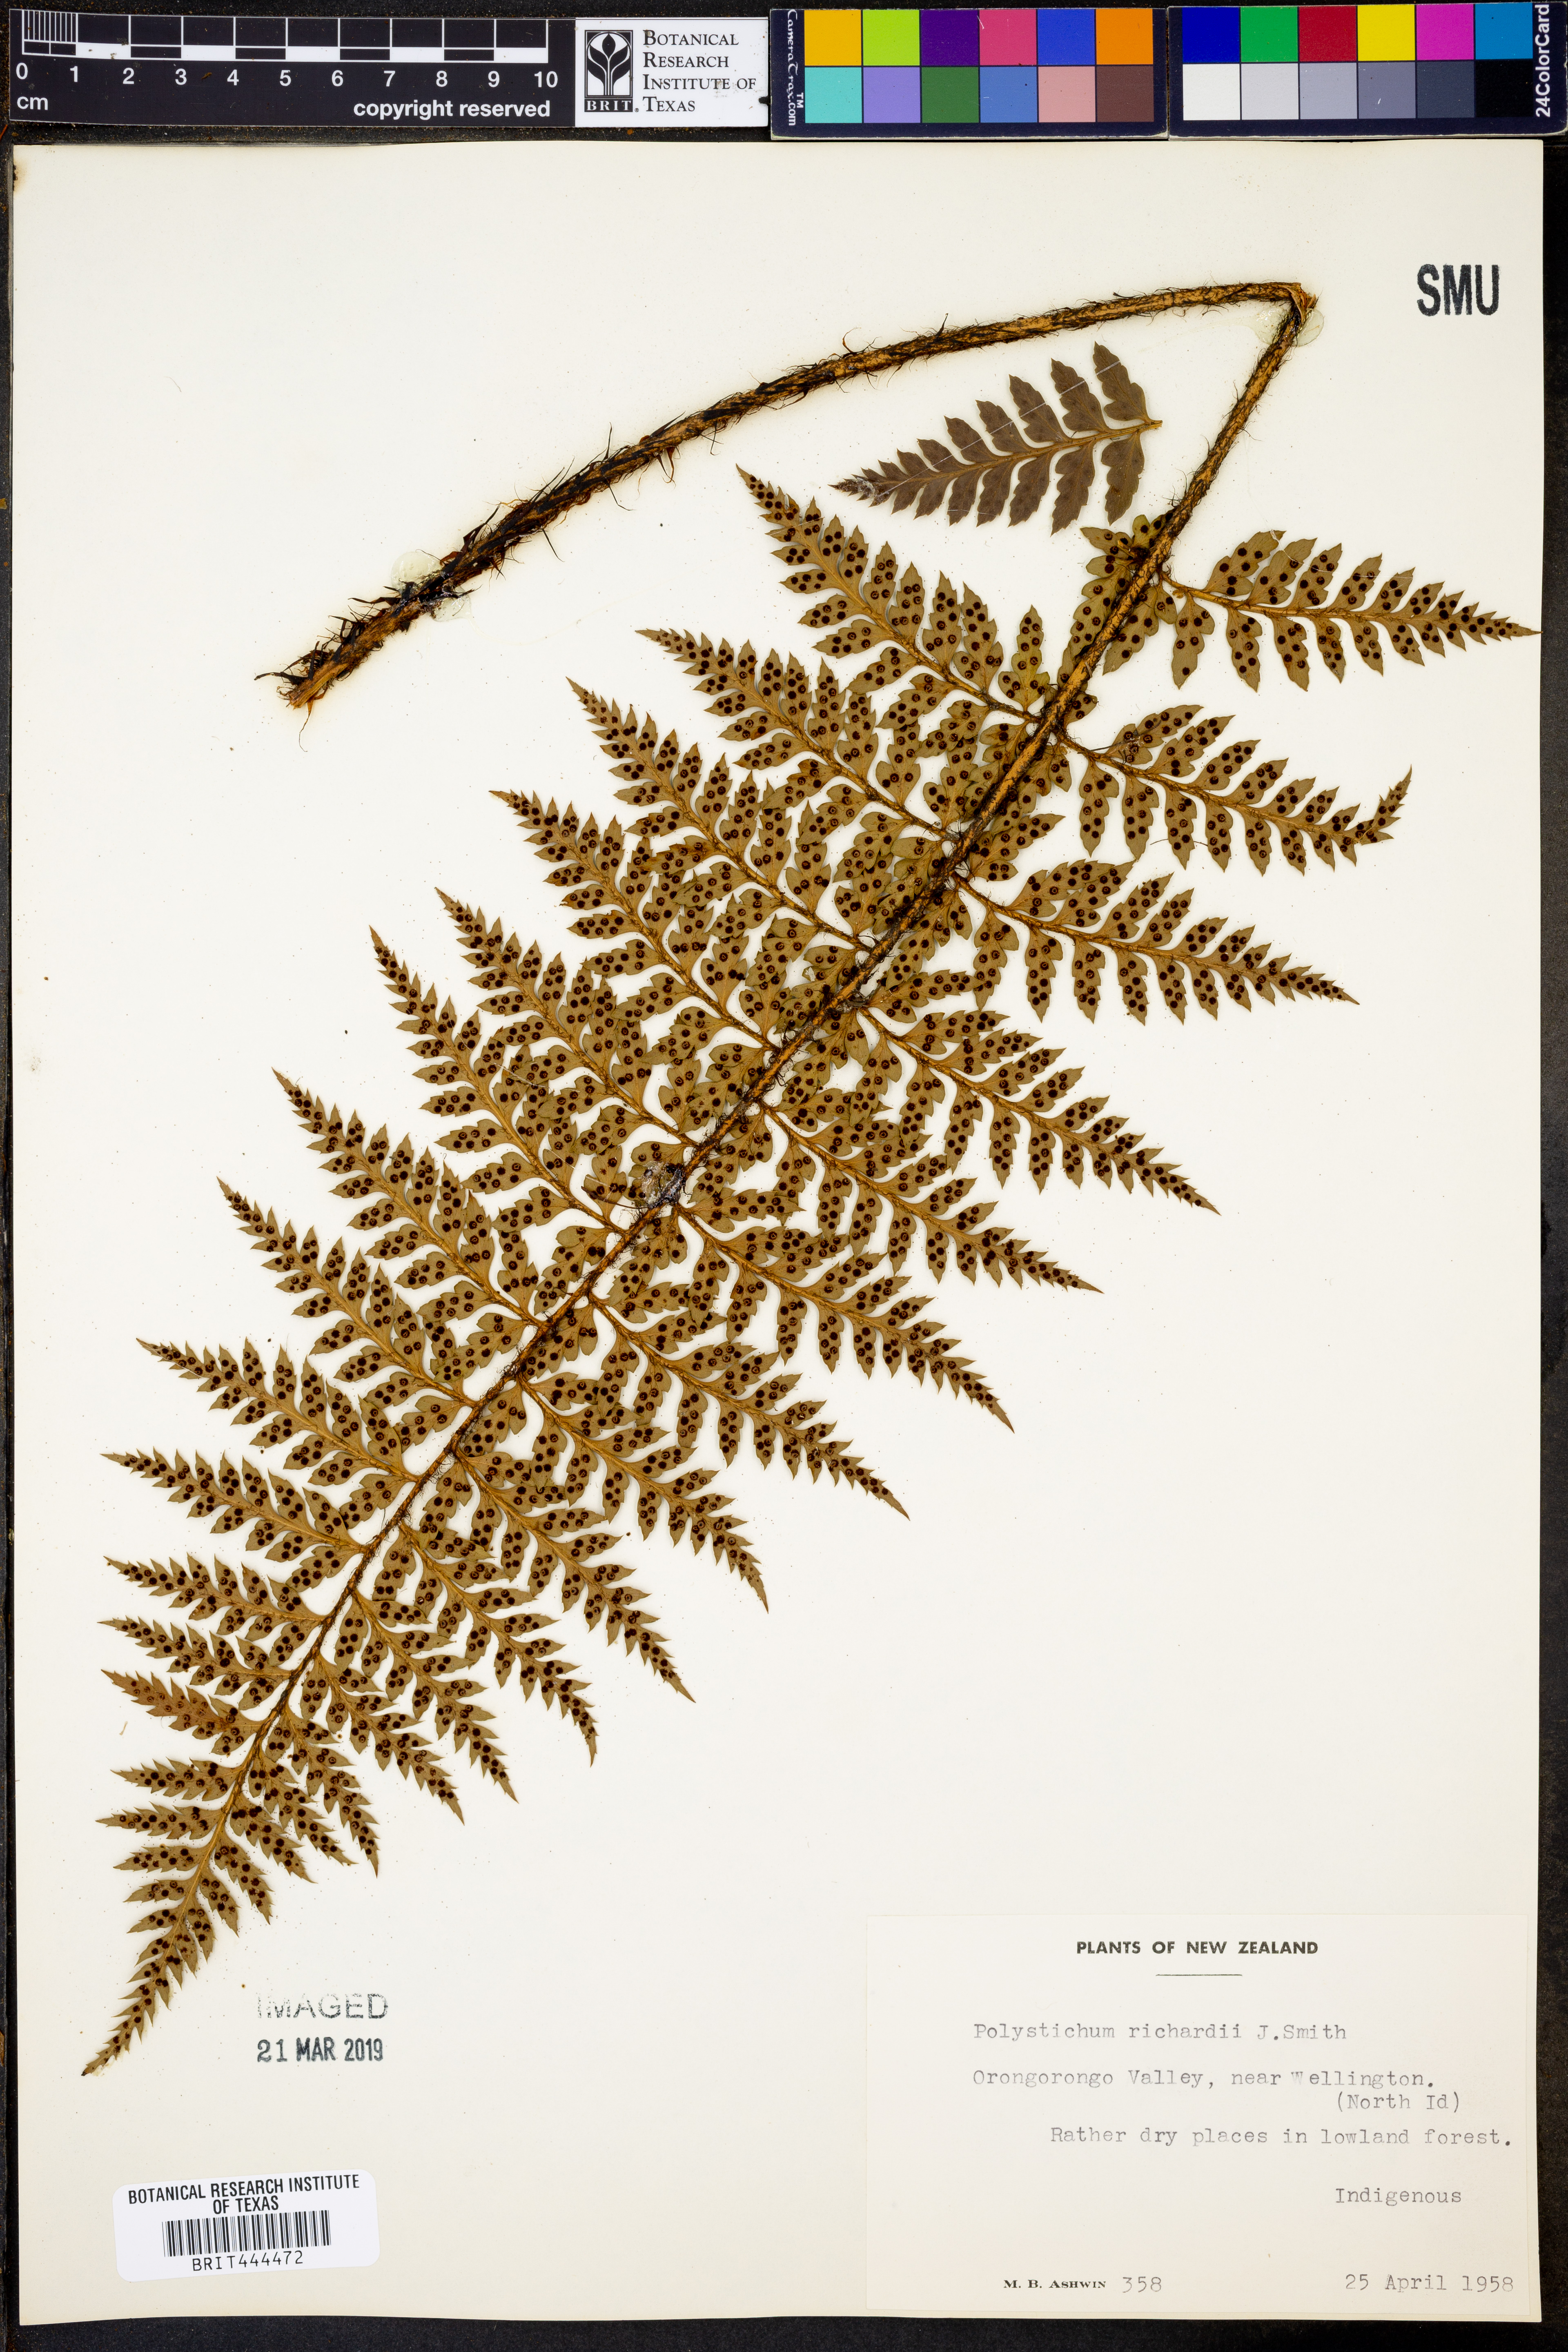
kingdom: Plantae
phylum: Tracheophyta
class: Polypodiopsida
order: Polypodiales
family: Dryopteridaceae
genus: Polystichum
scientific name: Polystichum neozelandicum
